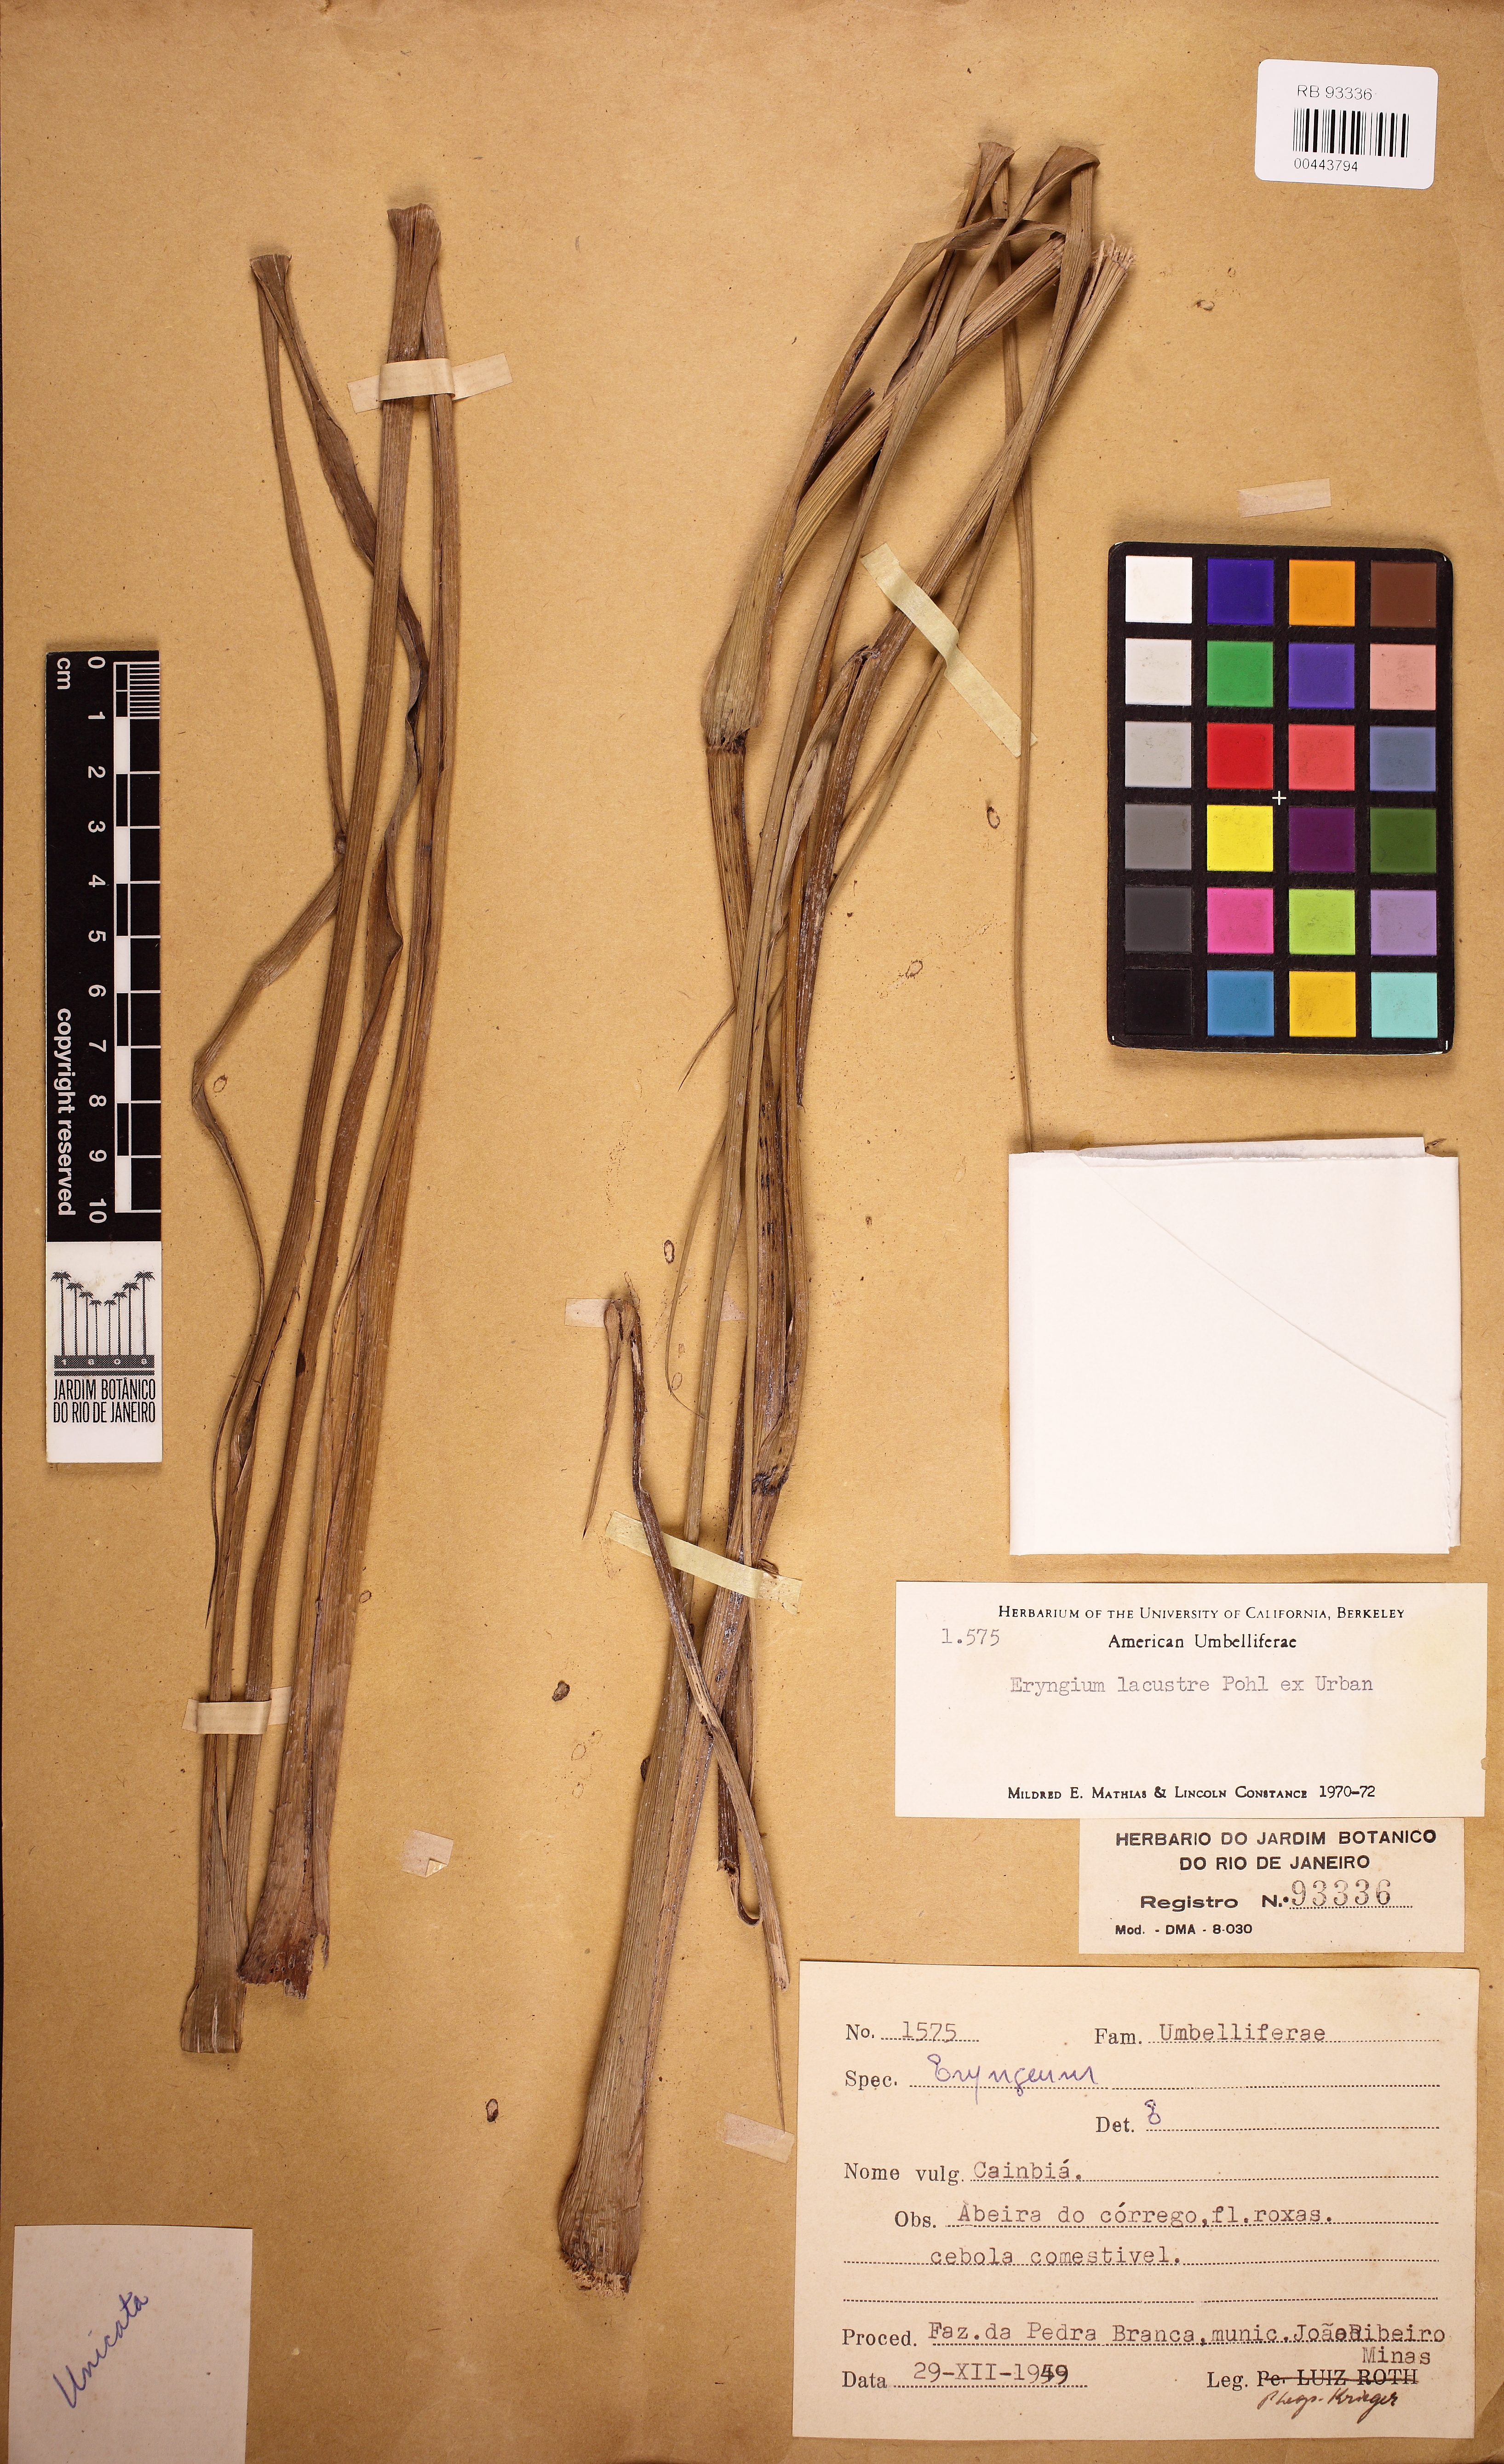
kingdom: Plantae
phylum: Tracheophyta
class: Magnoliopsida
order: Apiales
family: Apiaceae
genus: Eryngium
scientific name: Eryngium pandanifolium
